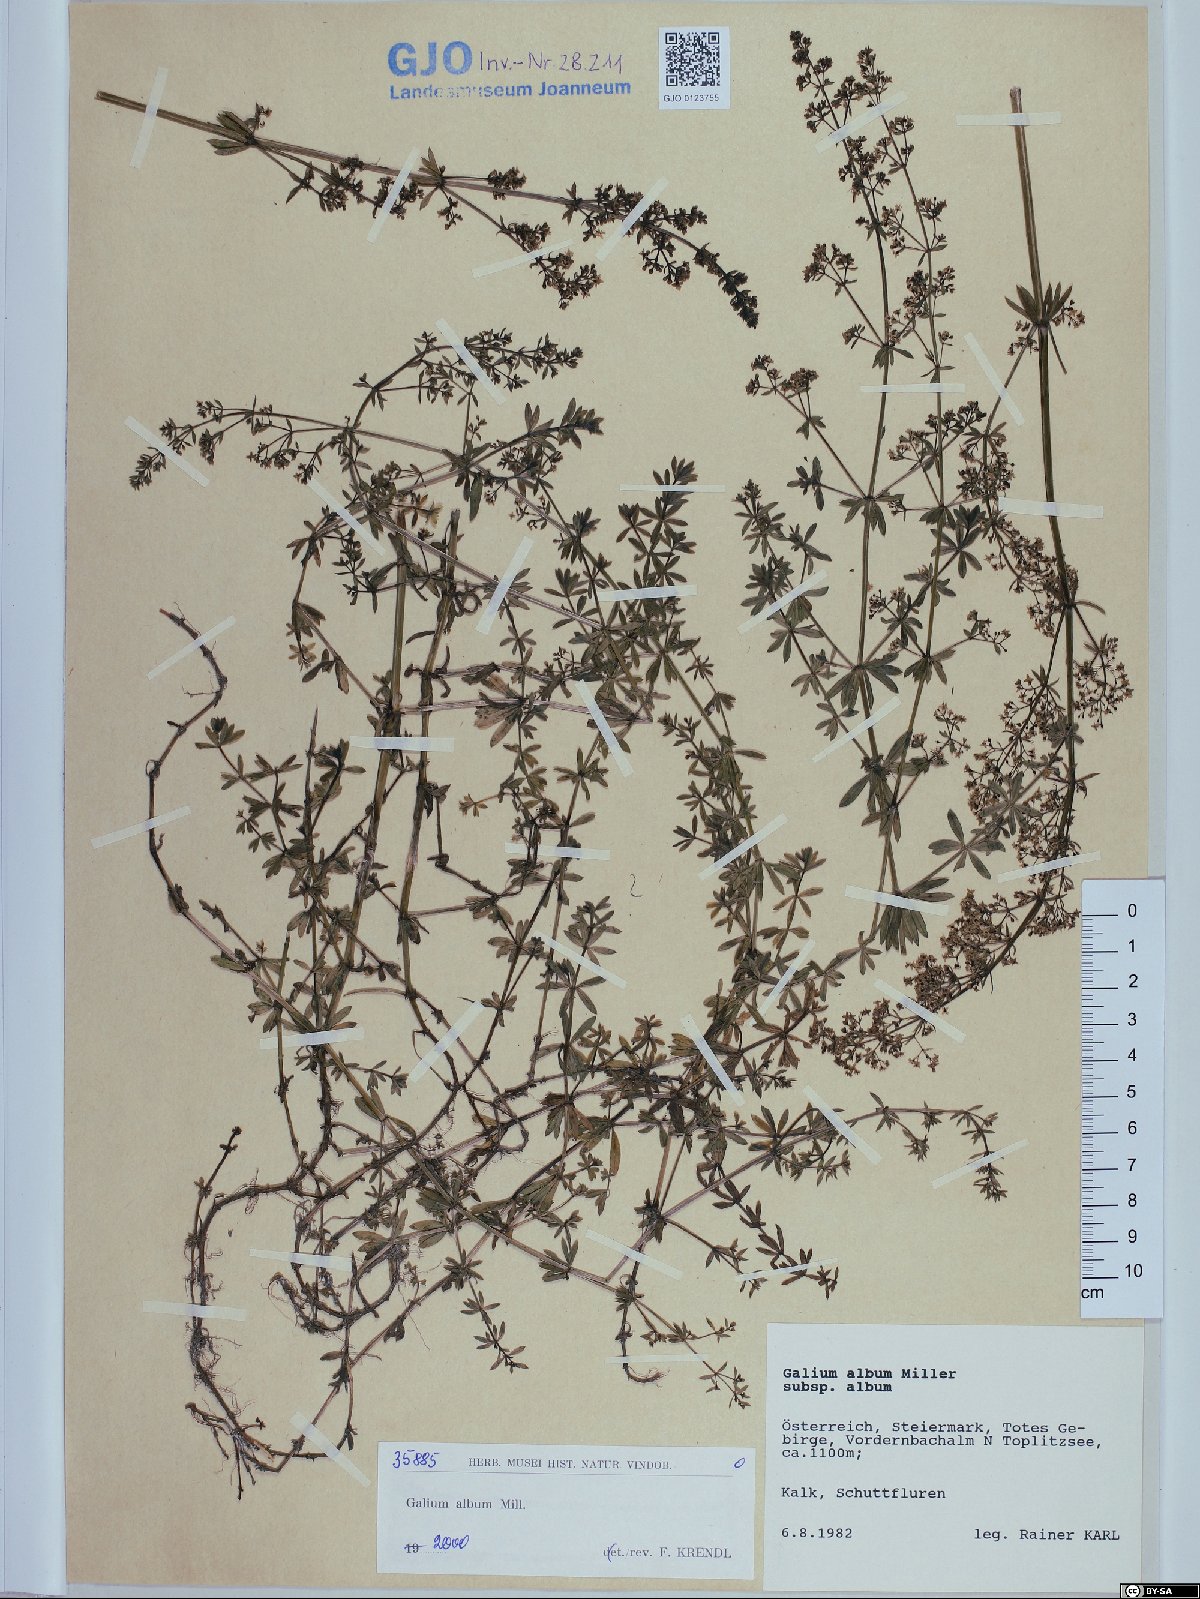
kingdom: Plantae
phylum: Tracheophyta
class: Magnoliopsida
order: Gentianales
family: Rubiaceae
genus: Galium
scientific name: Galium album
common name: White bedstraw
